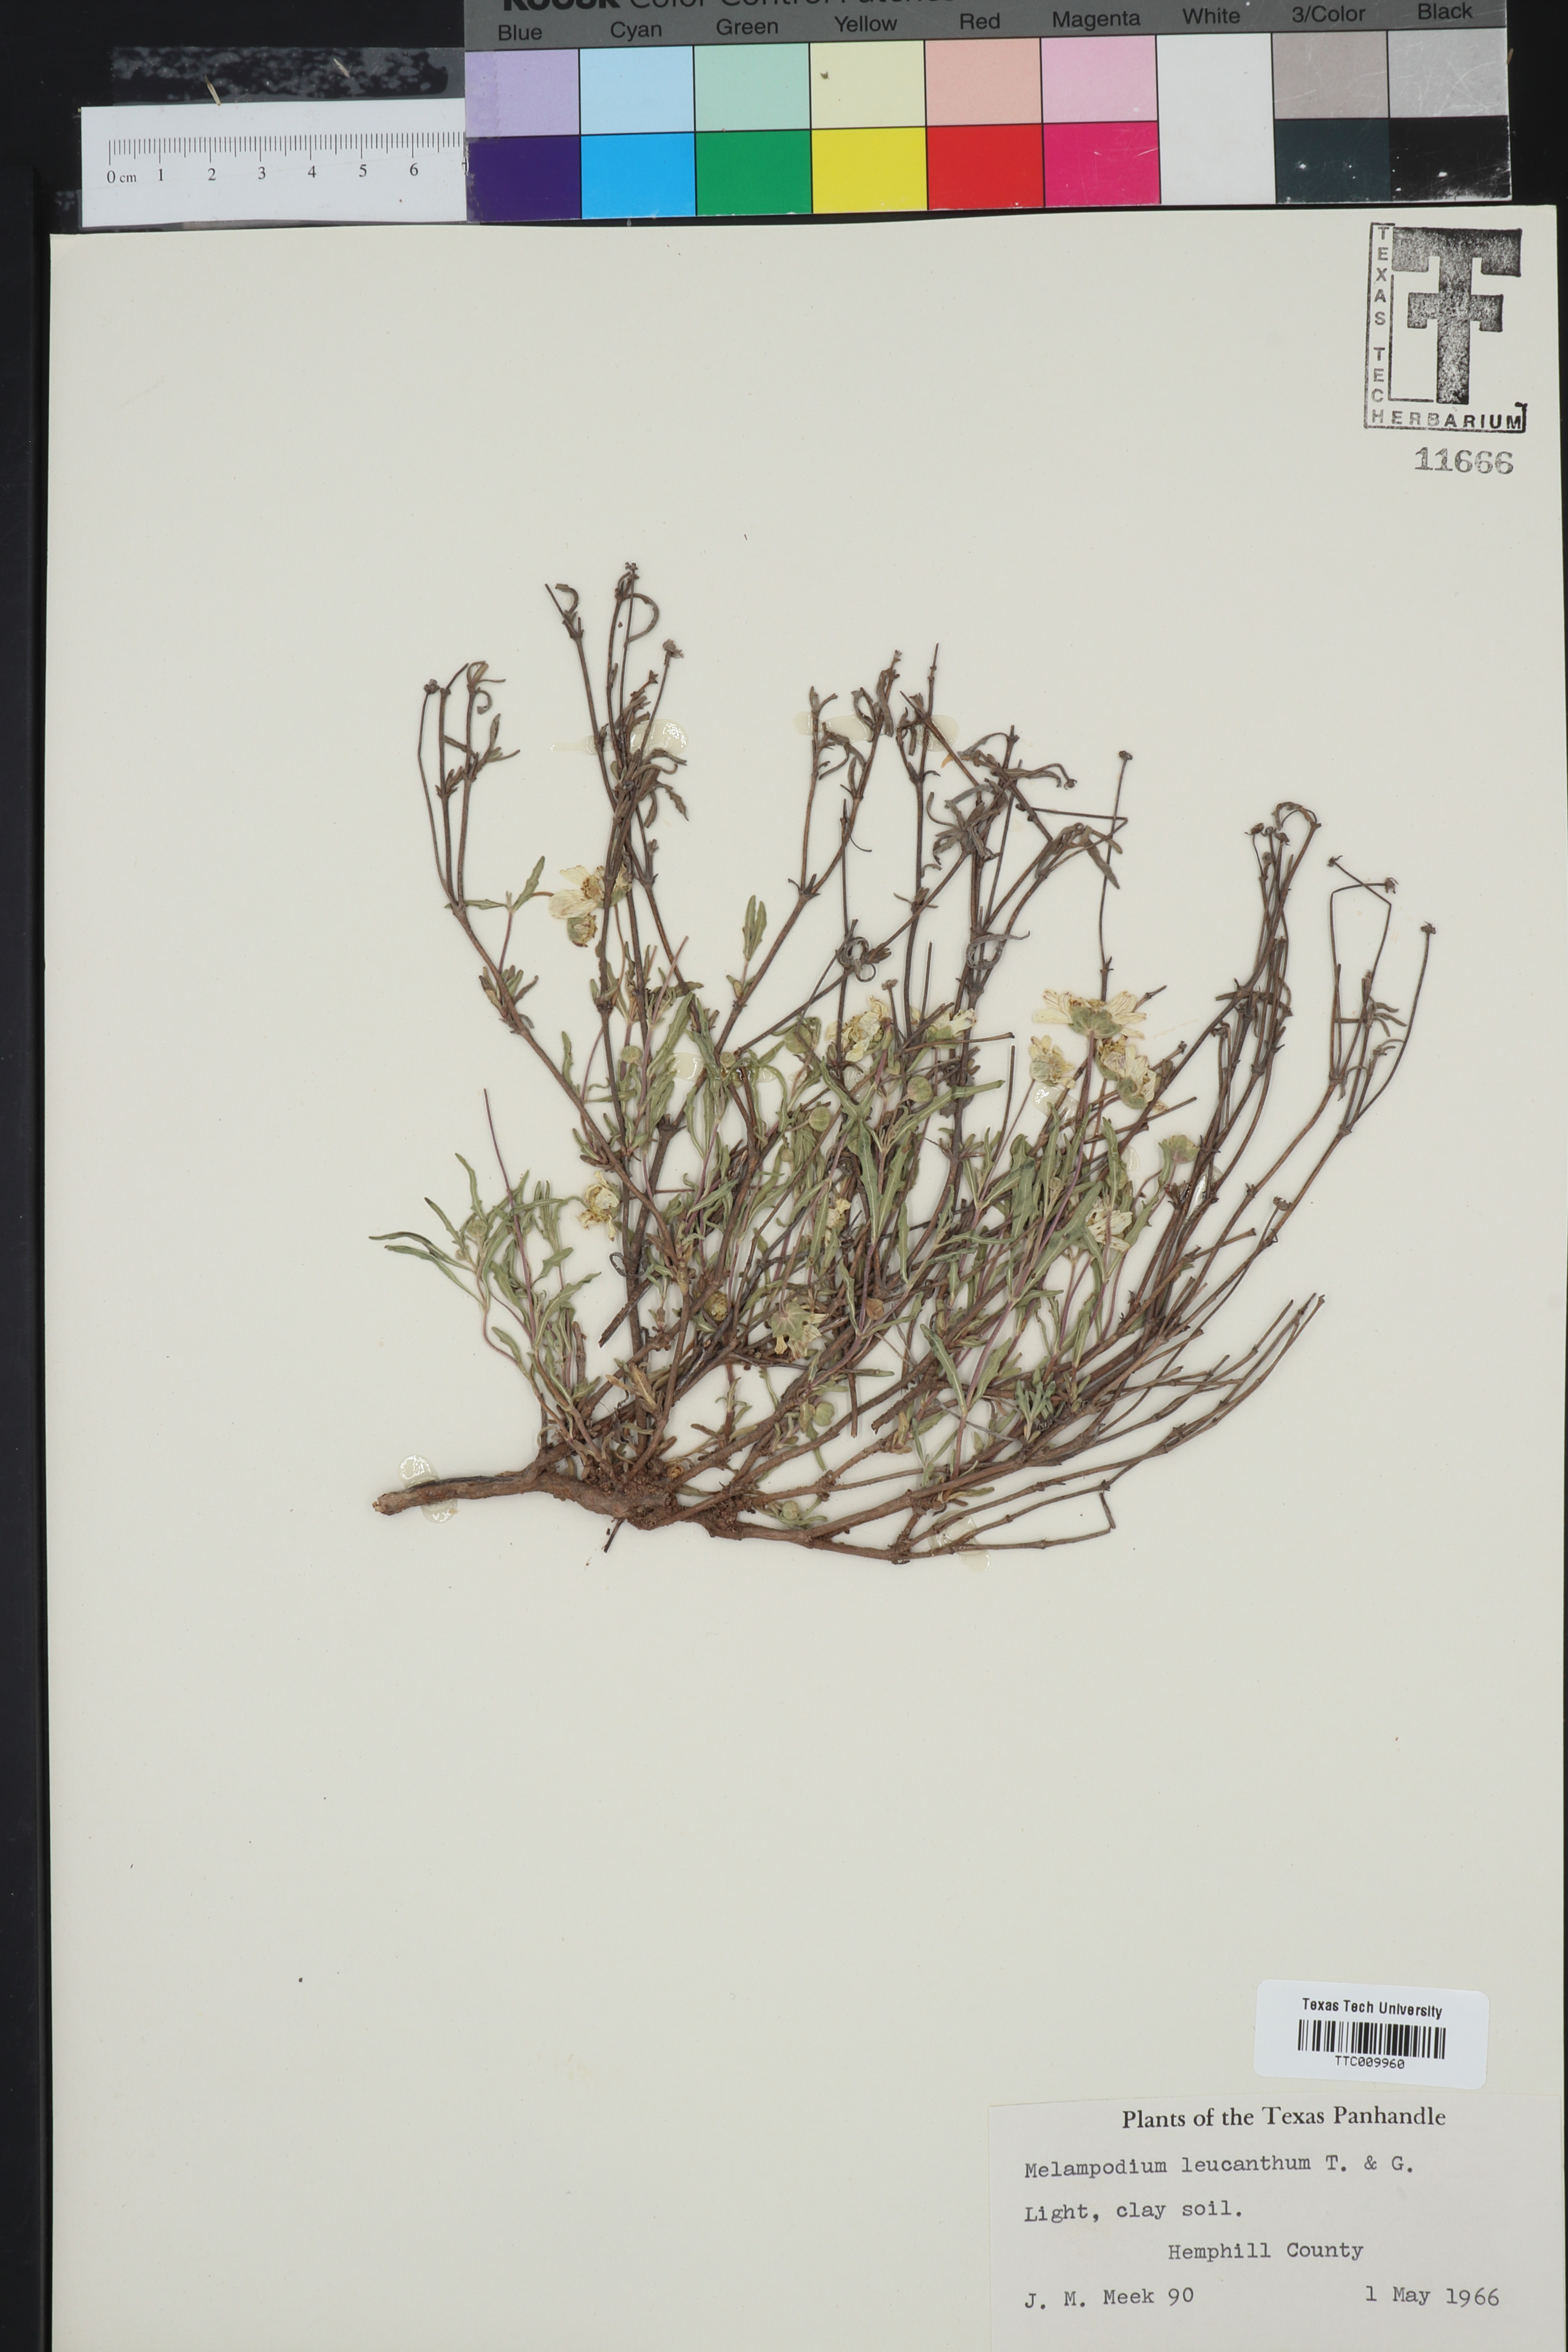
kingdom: Plantae
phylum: Tracheophyta
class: Magnoliopsida
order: Asterales
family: Asteraceae
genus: Melampodium
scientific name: Melampodium leucanthum
